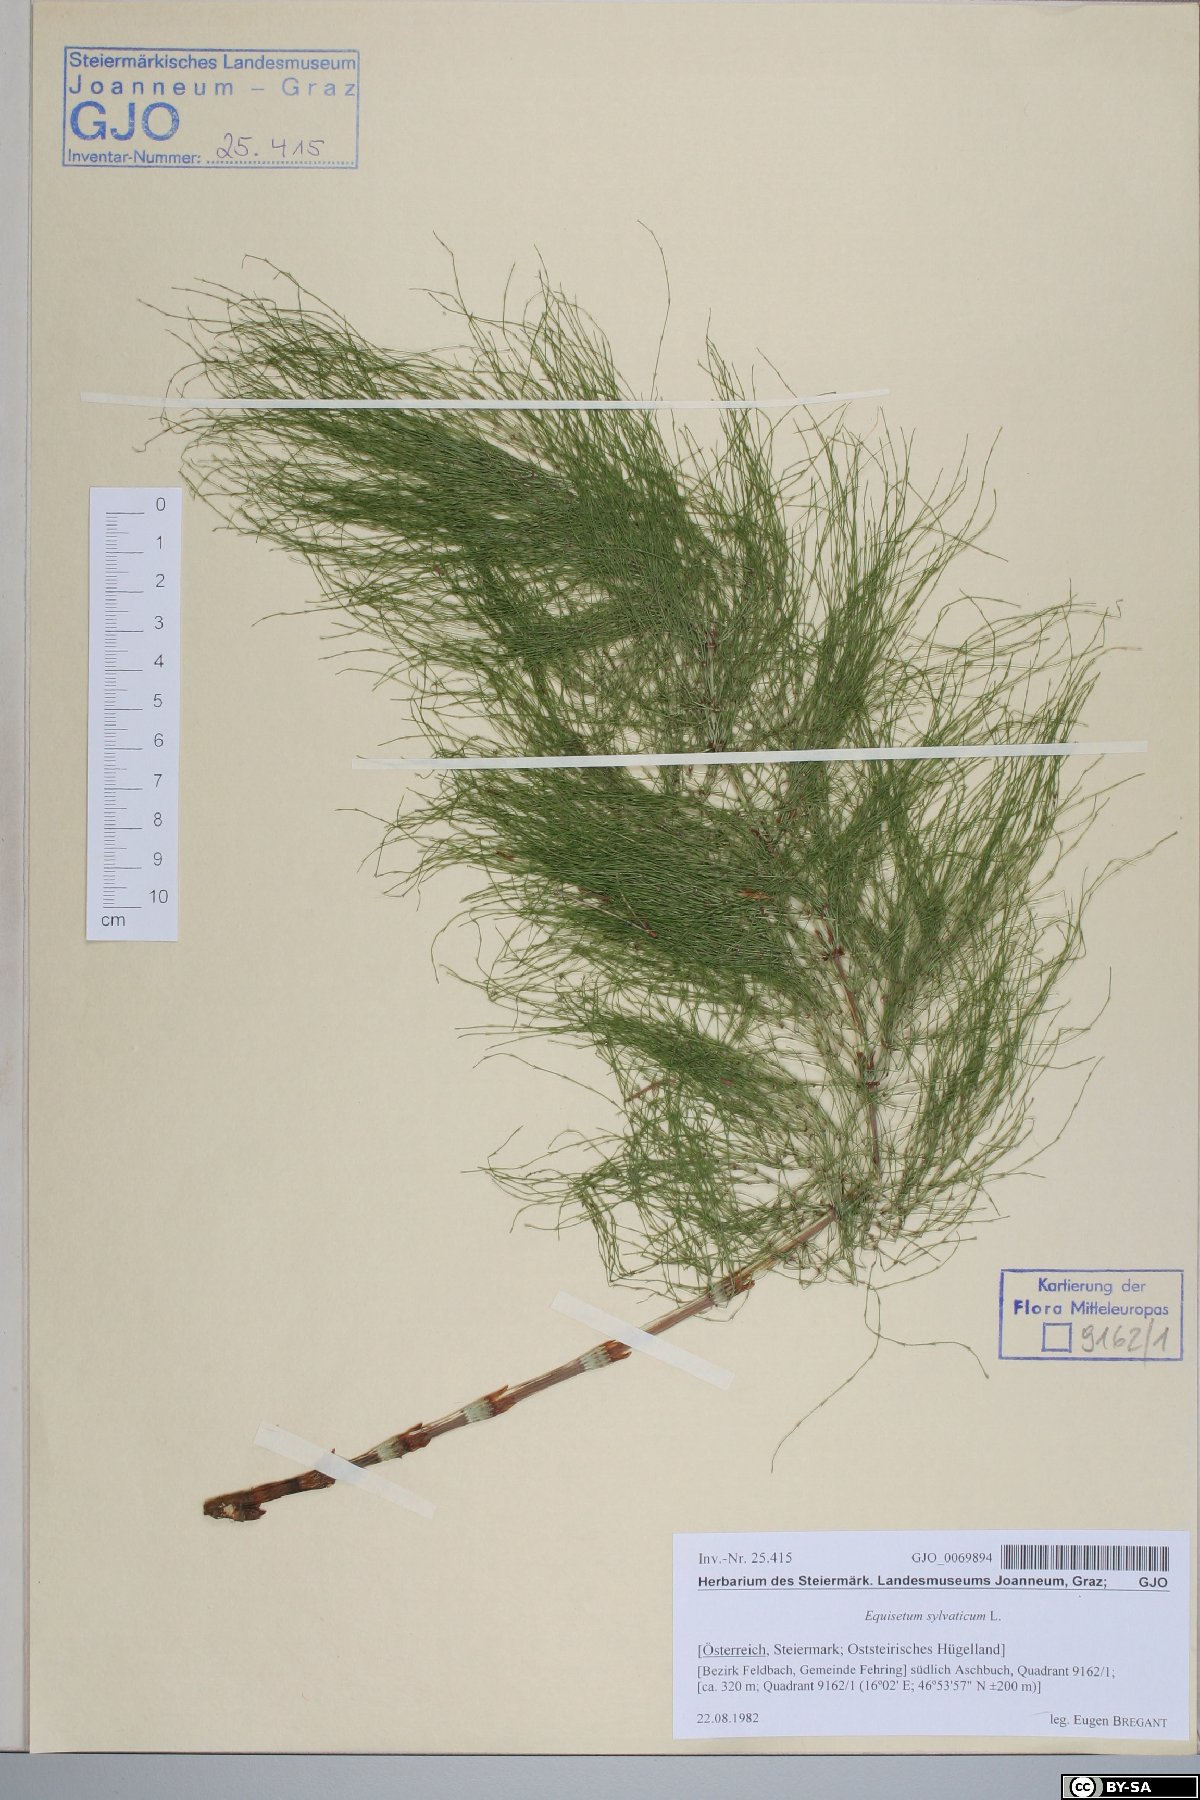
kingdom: Plantae
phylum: Tracheophyta
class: Polypodiopsida
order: Equisetales
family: Equisetaceae
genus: Equisetum
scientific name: Equisetum sylvaticum
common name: Wood horsetail
